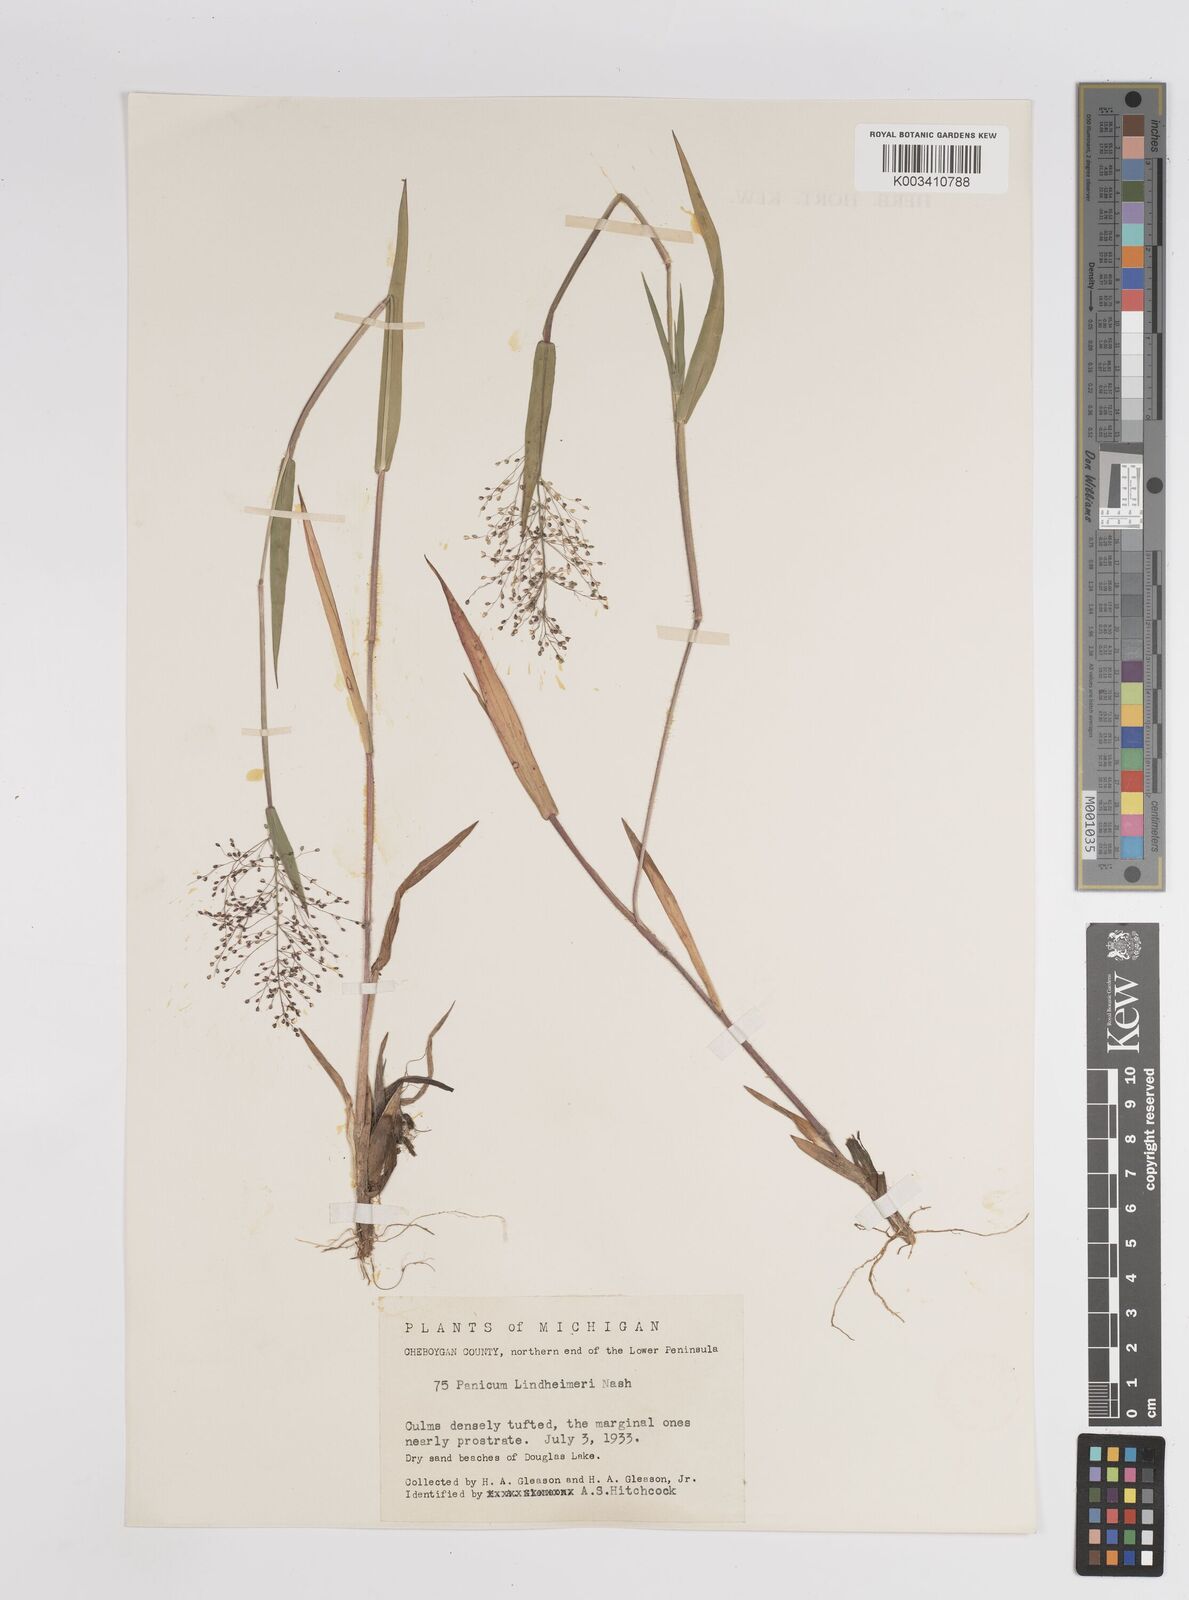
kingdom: Plantae
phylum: Tracheophyta
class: Liliopsida
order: Poales
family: Poaceae
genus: Dichanthelium
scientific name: Dichanthelium acuminatum
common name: Hairy panic grass
